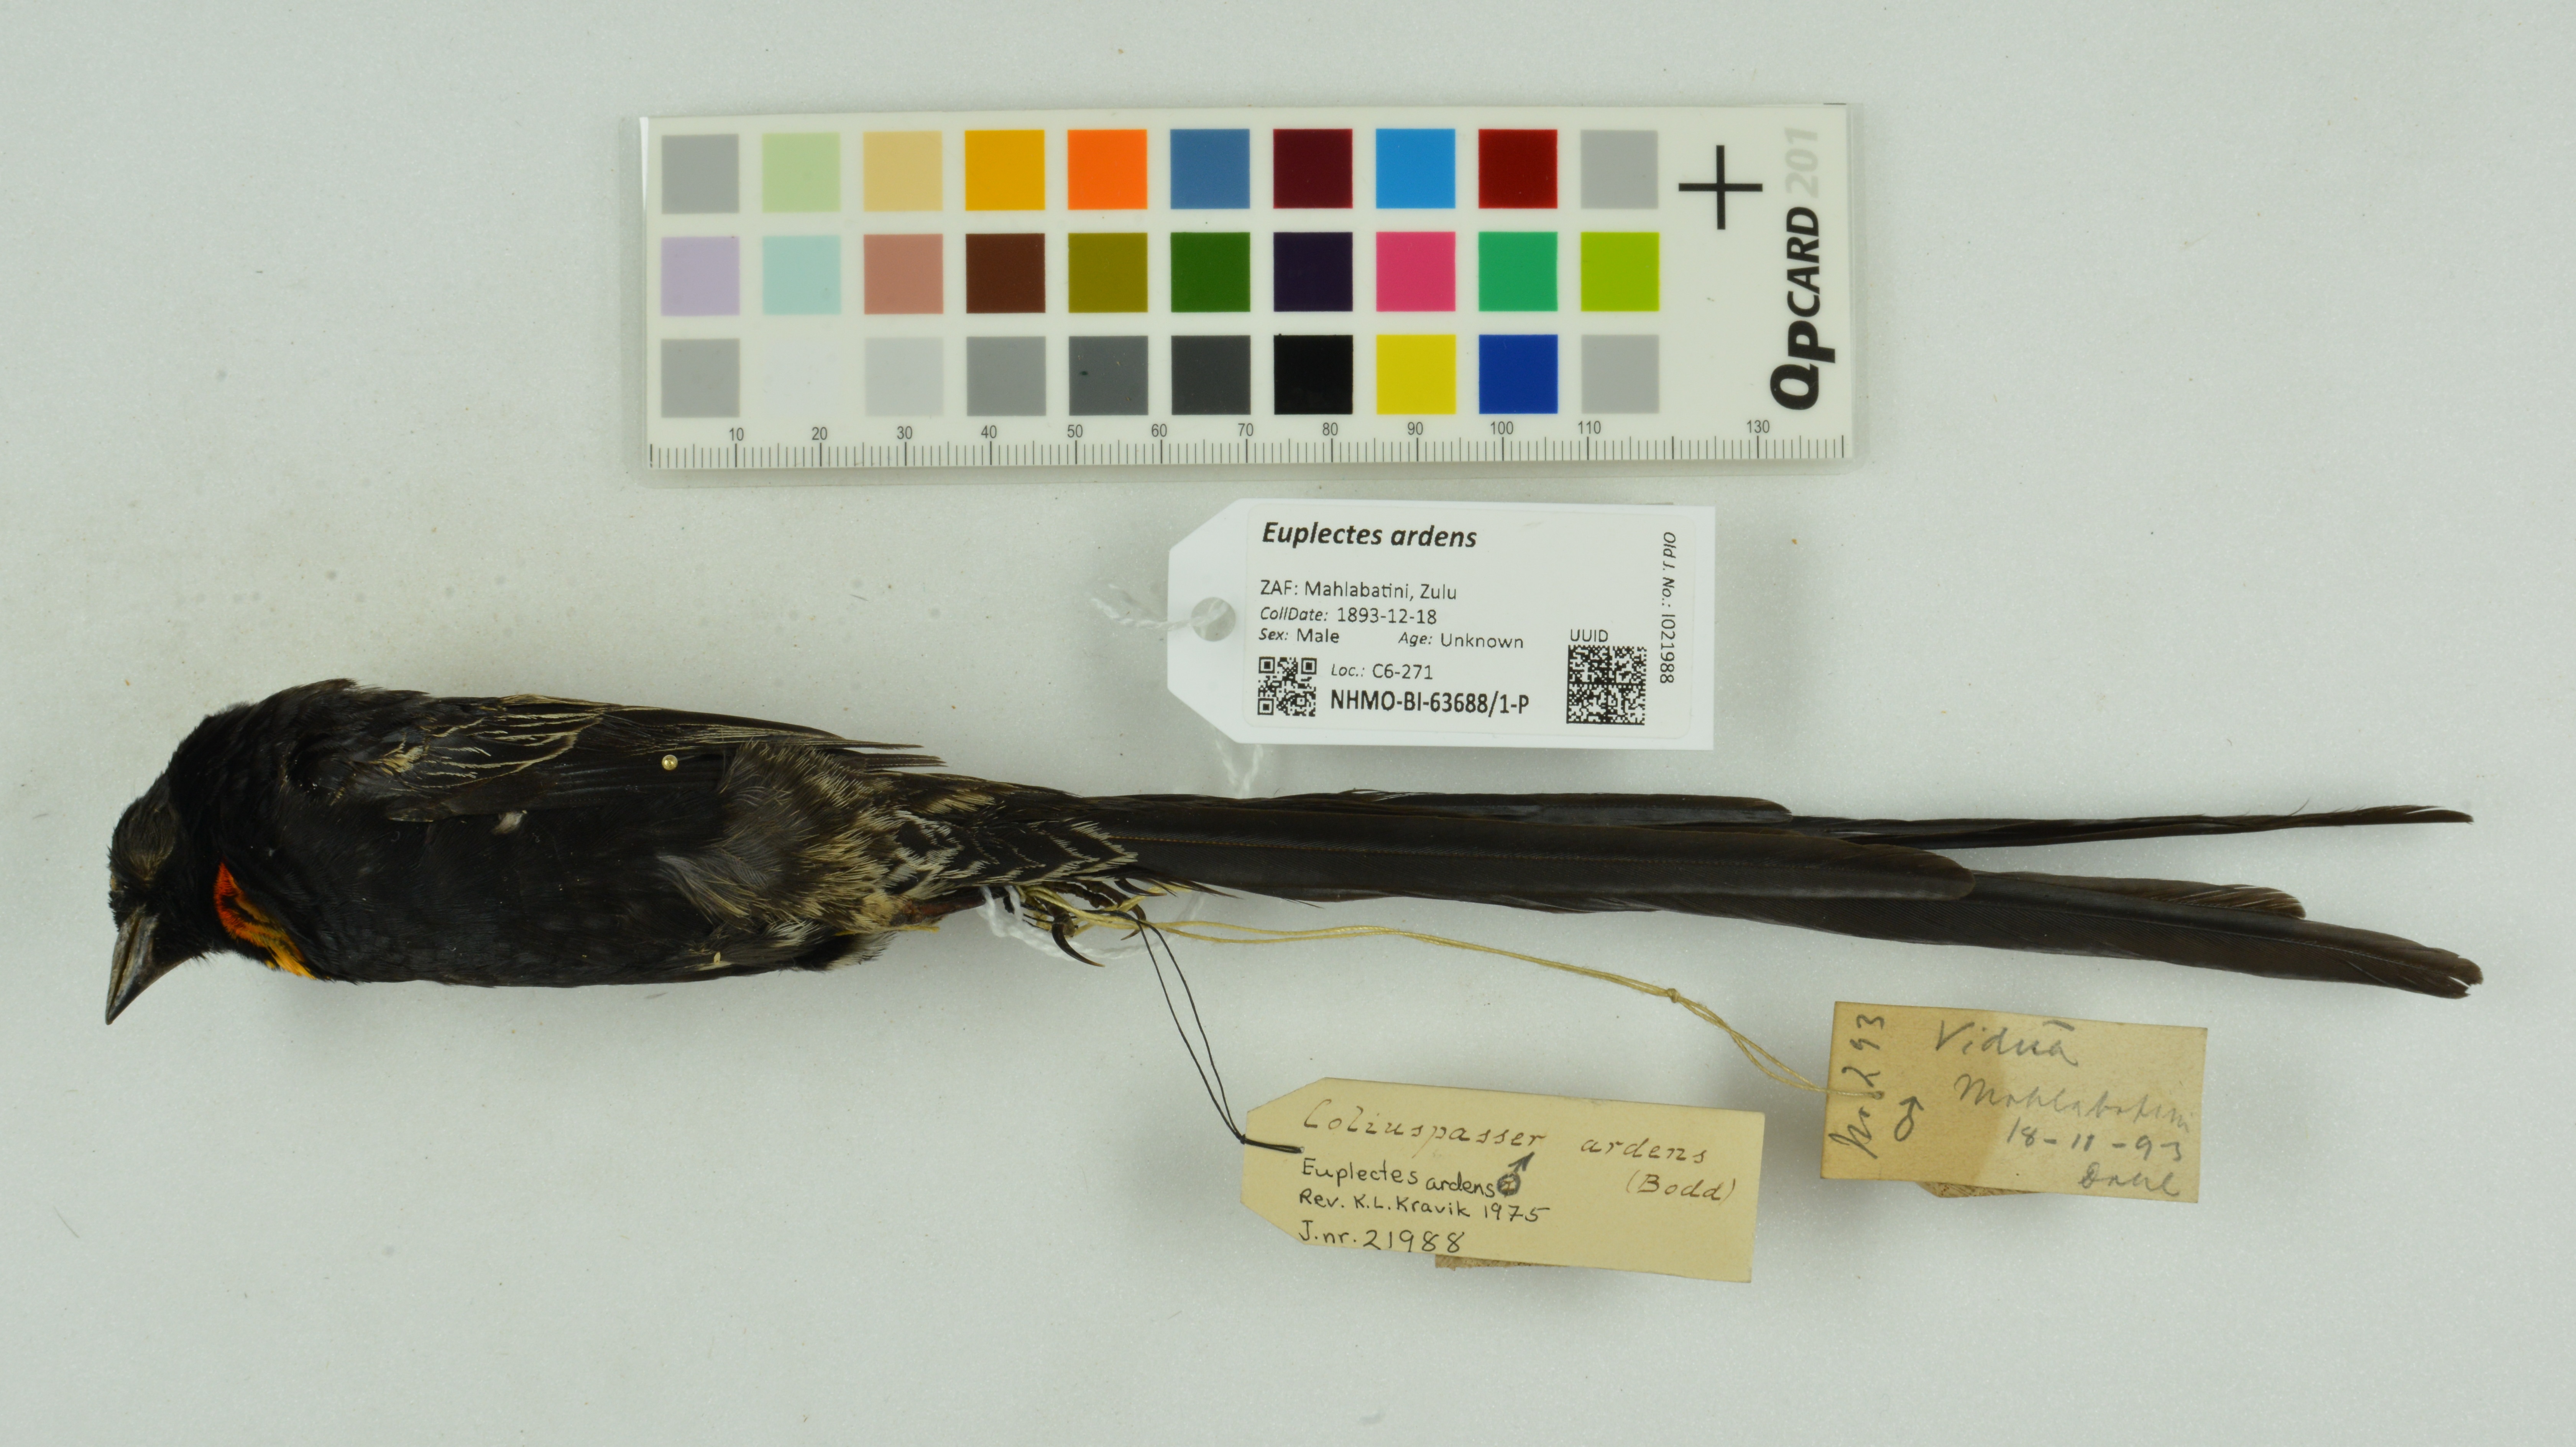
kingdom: Animalia
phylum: Chordata
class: Aves
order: Passeriformes
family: Ploceidae
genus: Euplectes
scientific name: Euplectes ardens
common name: Red-collared widowbird
